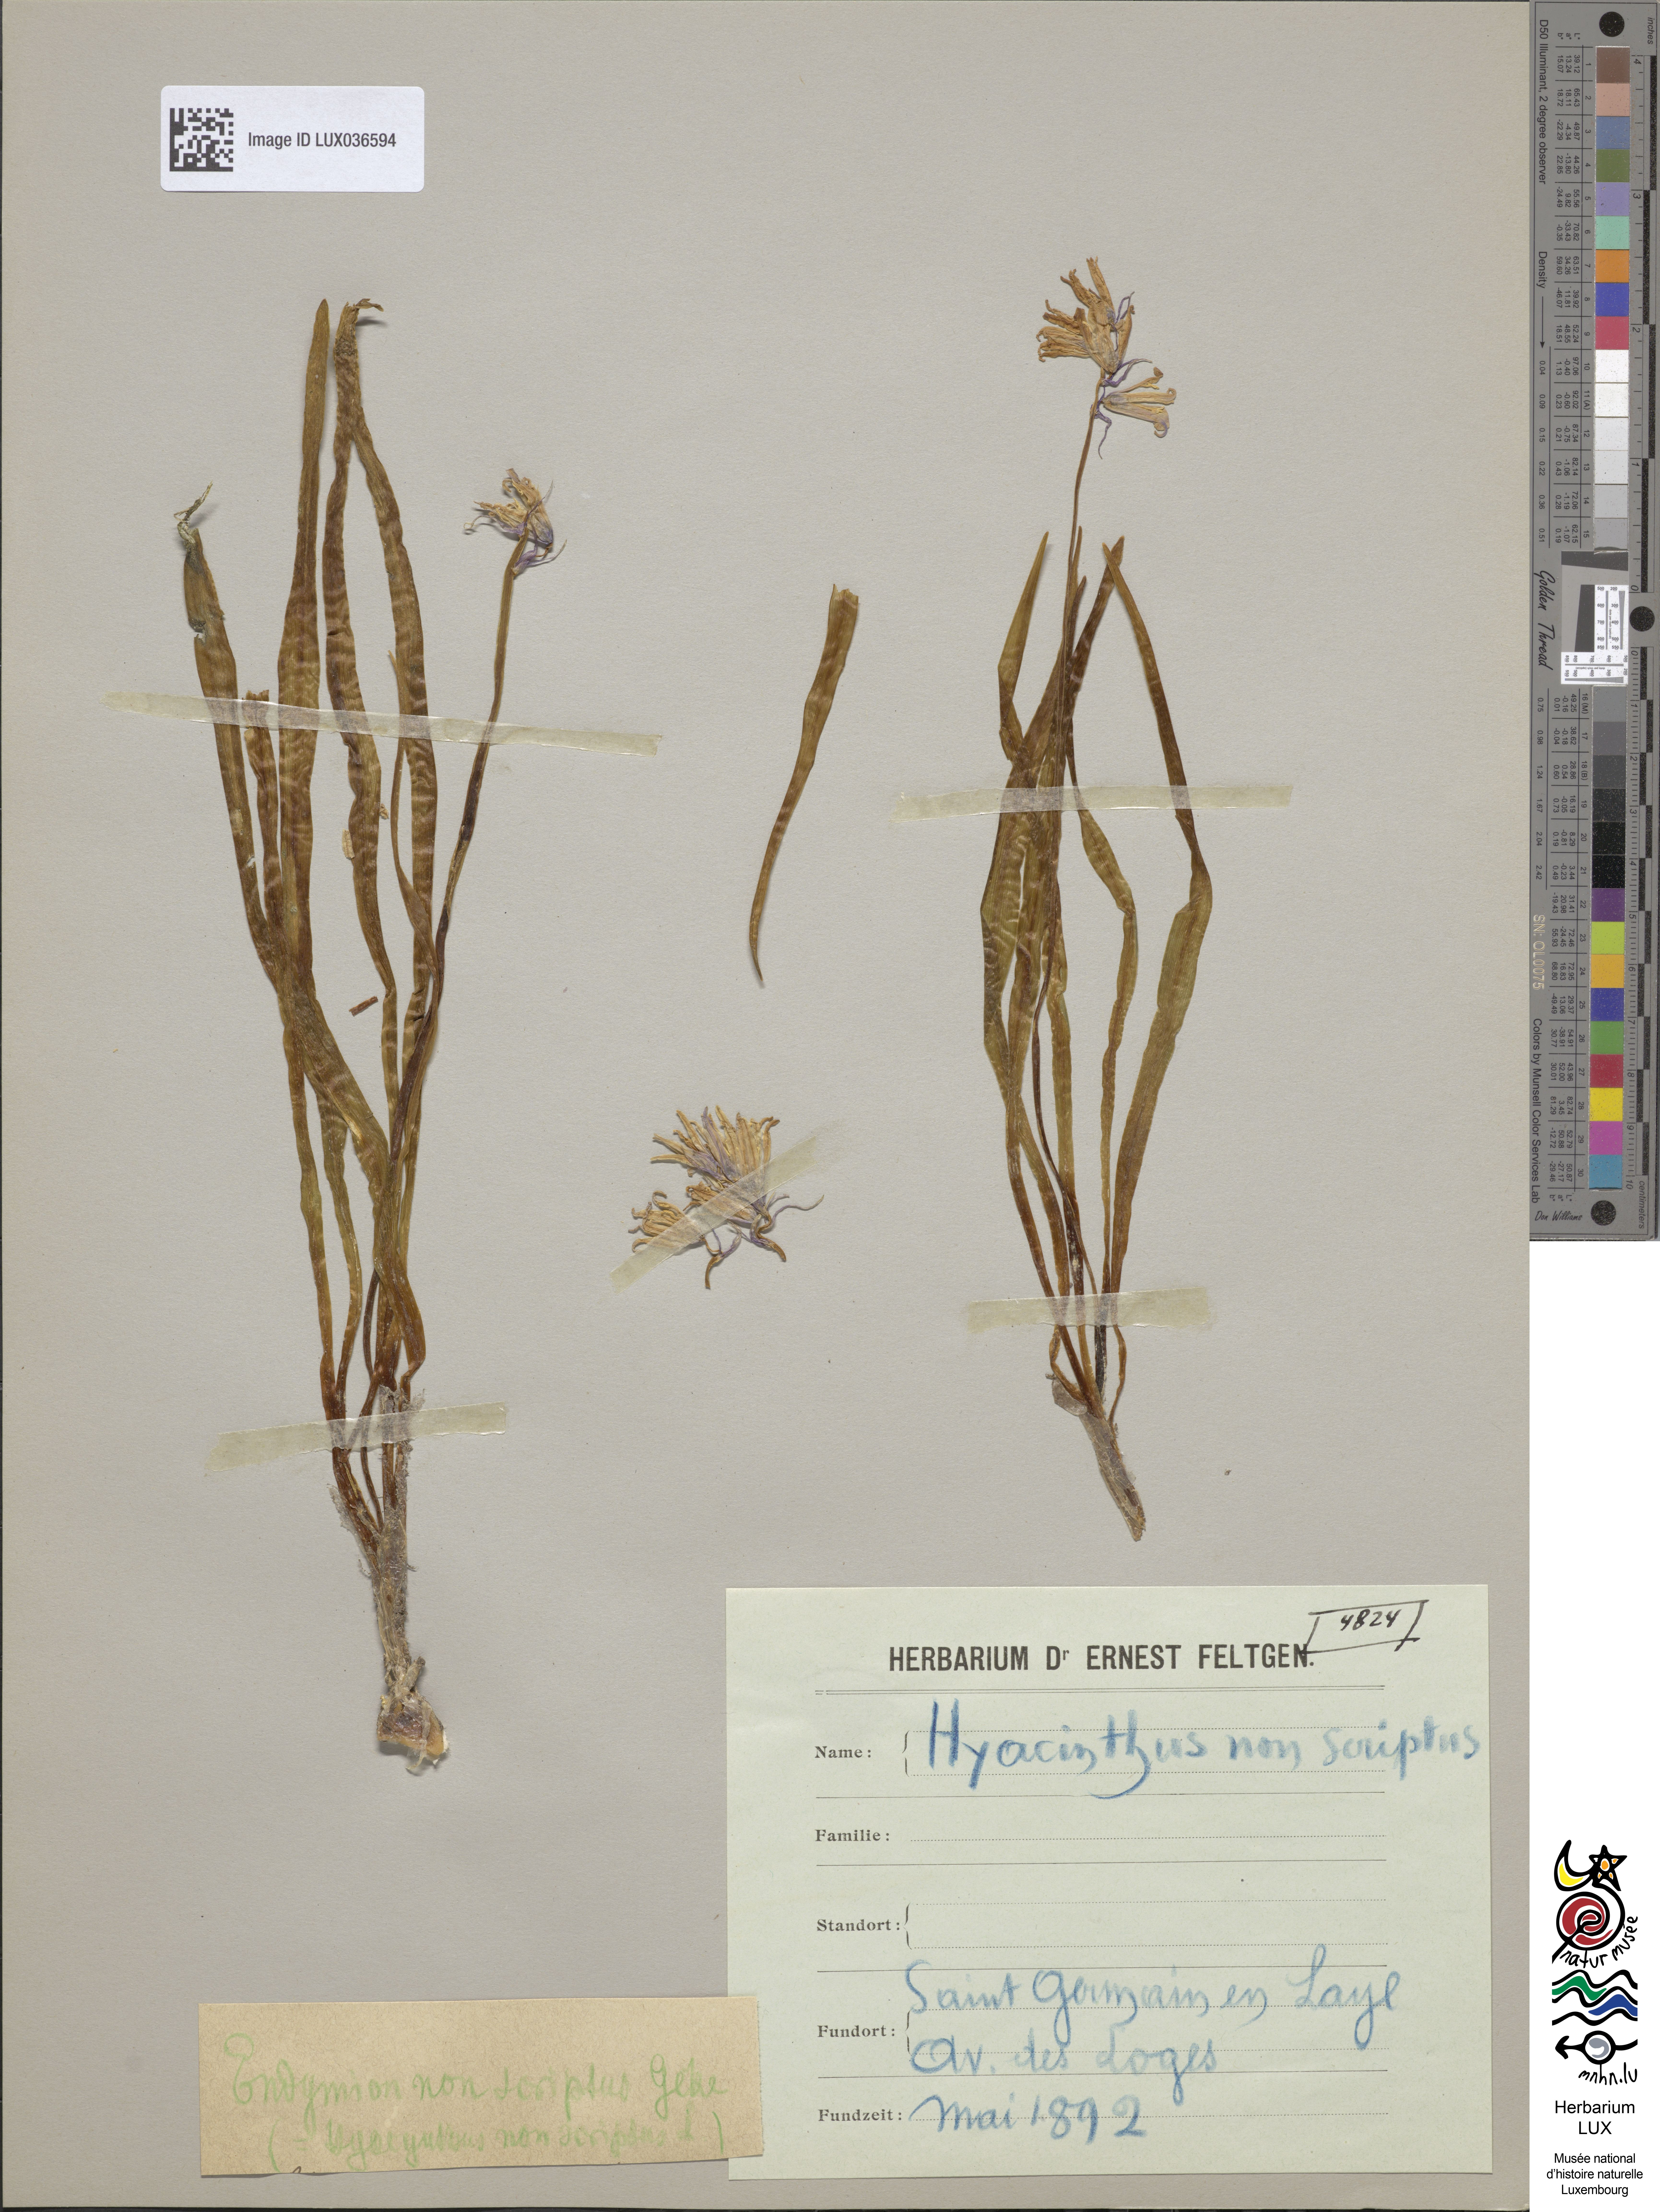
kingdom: Plantae
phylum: Tracheophyta
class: Liliopsida
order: Asparagales
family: Asparagaceae
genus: Hyacinthoides
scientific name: Hyacinthoides non-scripta
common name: Bluebell
